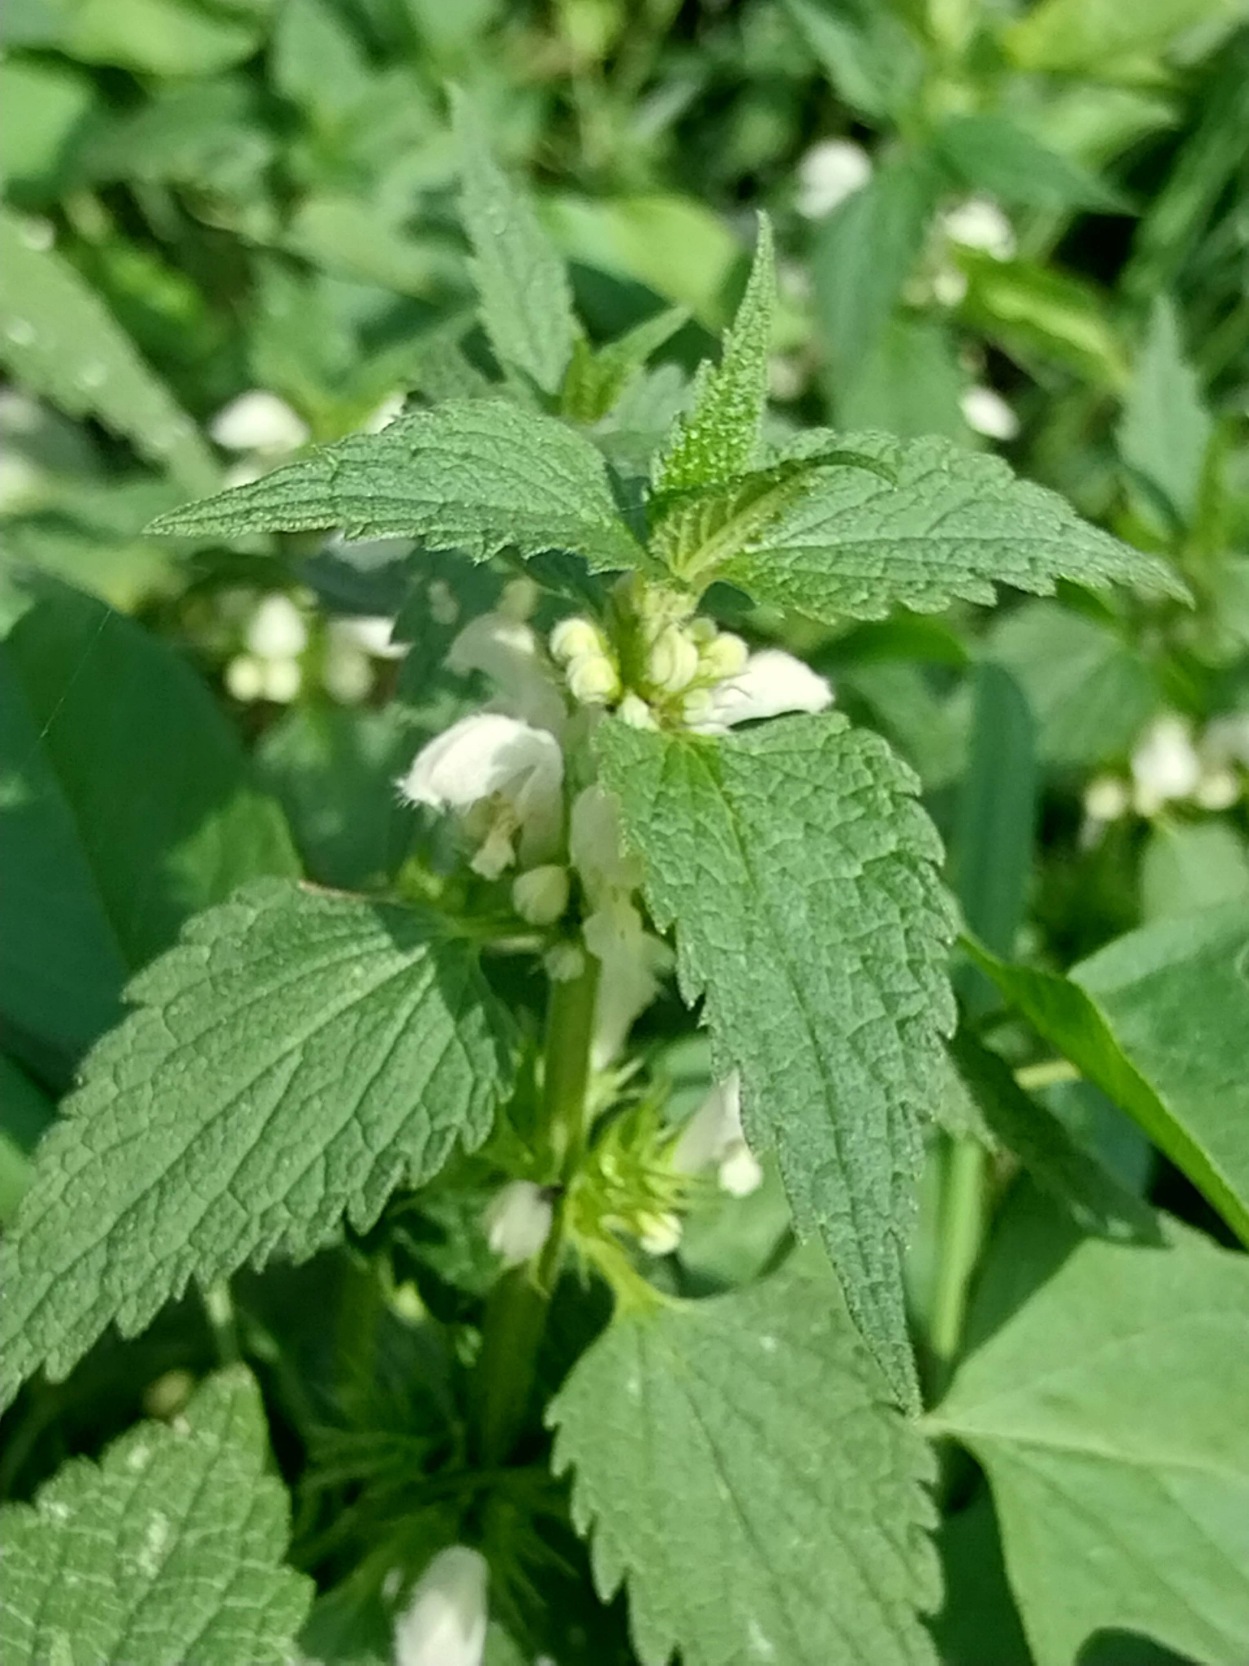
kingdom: Plantae
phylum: Tracheophyta
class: Magnoliopsida
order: Lamiales
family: Lamiaceae
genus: Lamium
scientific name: Lamium album
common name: Døvnælde
